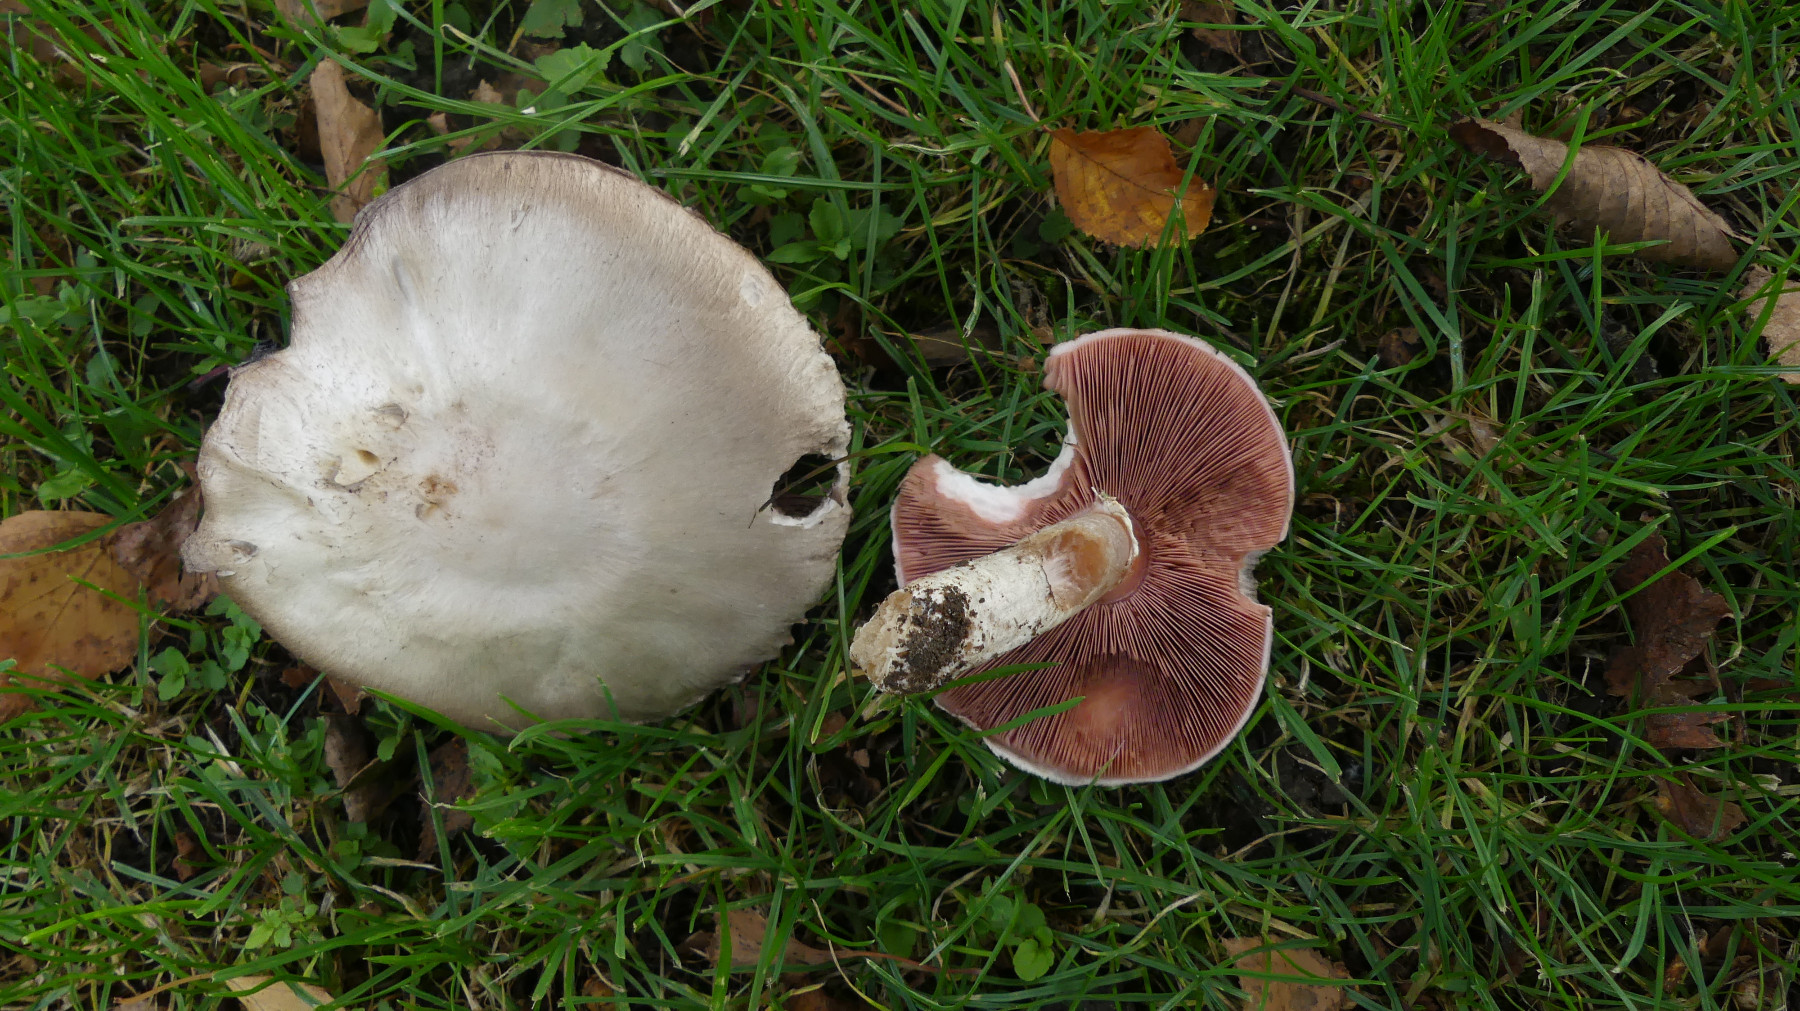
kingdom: Fungi
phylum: Basidiomycota
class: Agaricomycetes
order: Agaricales
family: Agaricaceae
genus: Agaricus
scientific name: Agaricus campestris
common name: mark-champignon
